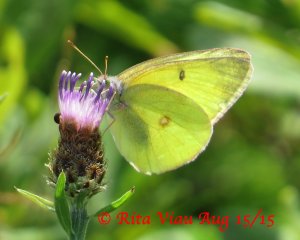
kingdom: Animalia
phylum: Arthropoda
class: Insecta
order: Lepidoptera
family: Pieridae
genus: Colias
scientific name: Colias interior
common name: Pink-edged Sulphur
